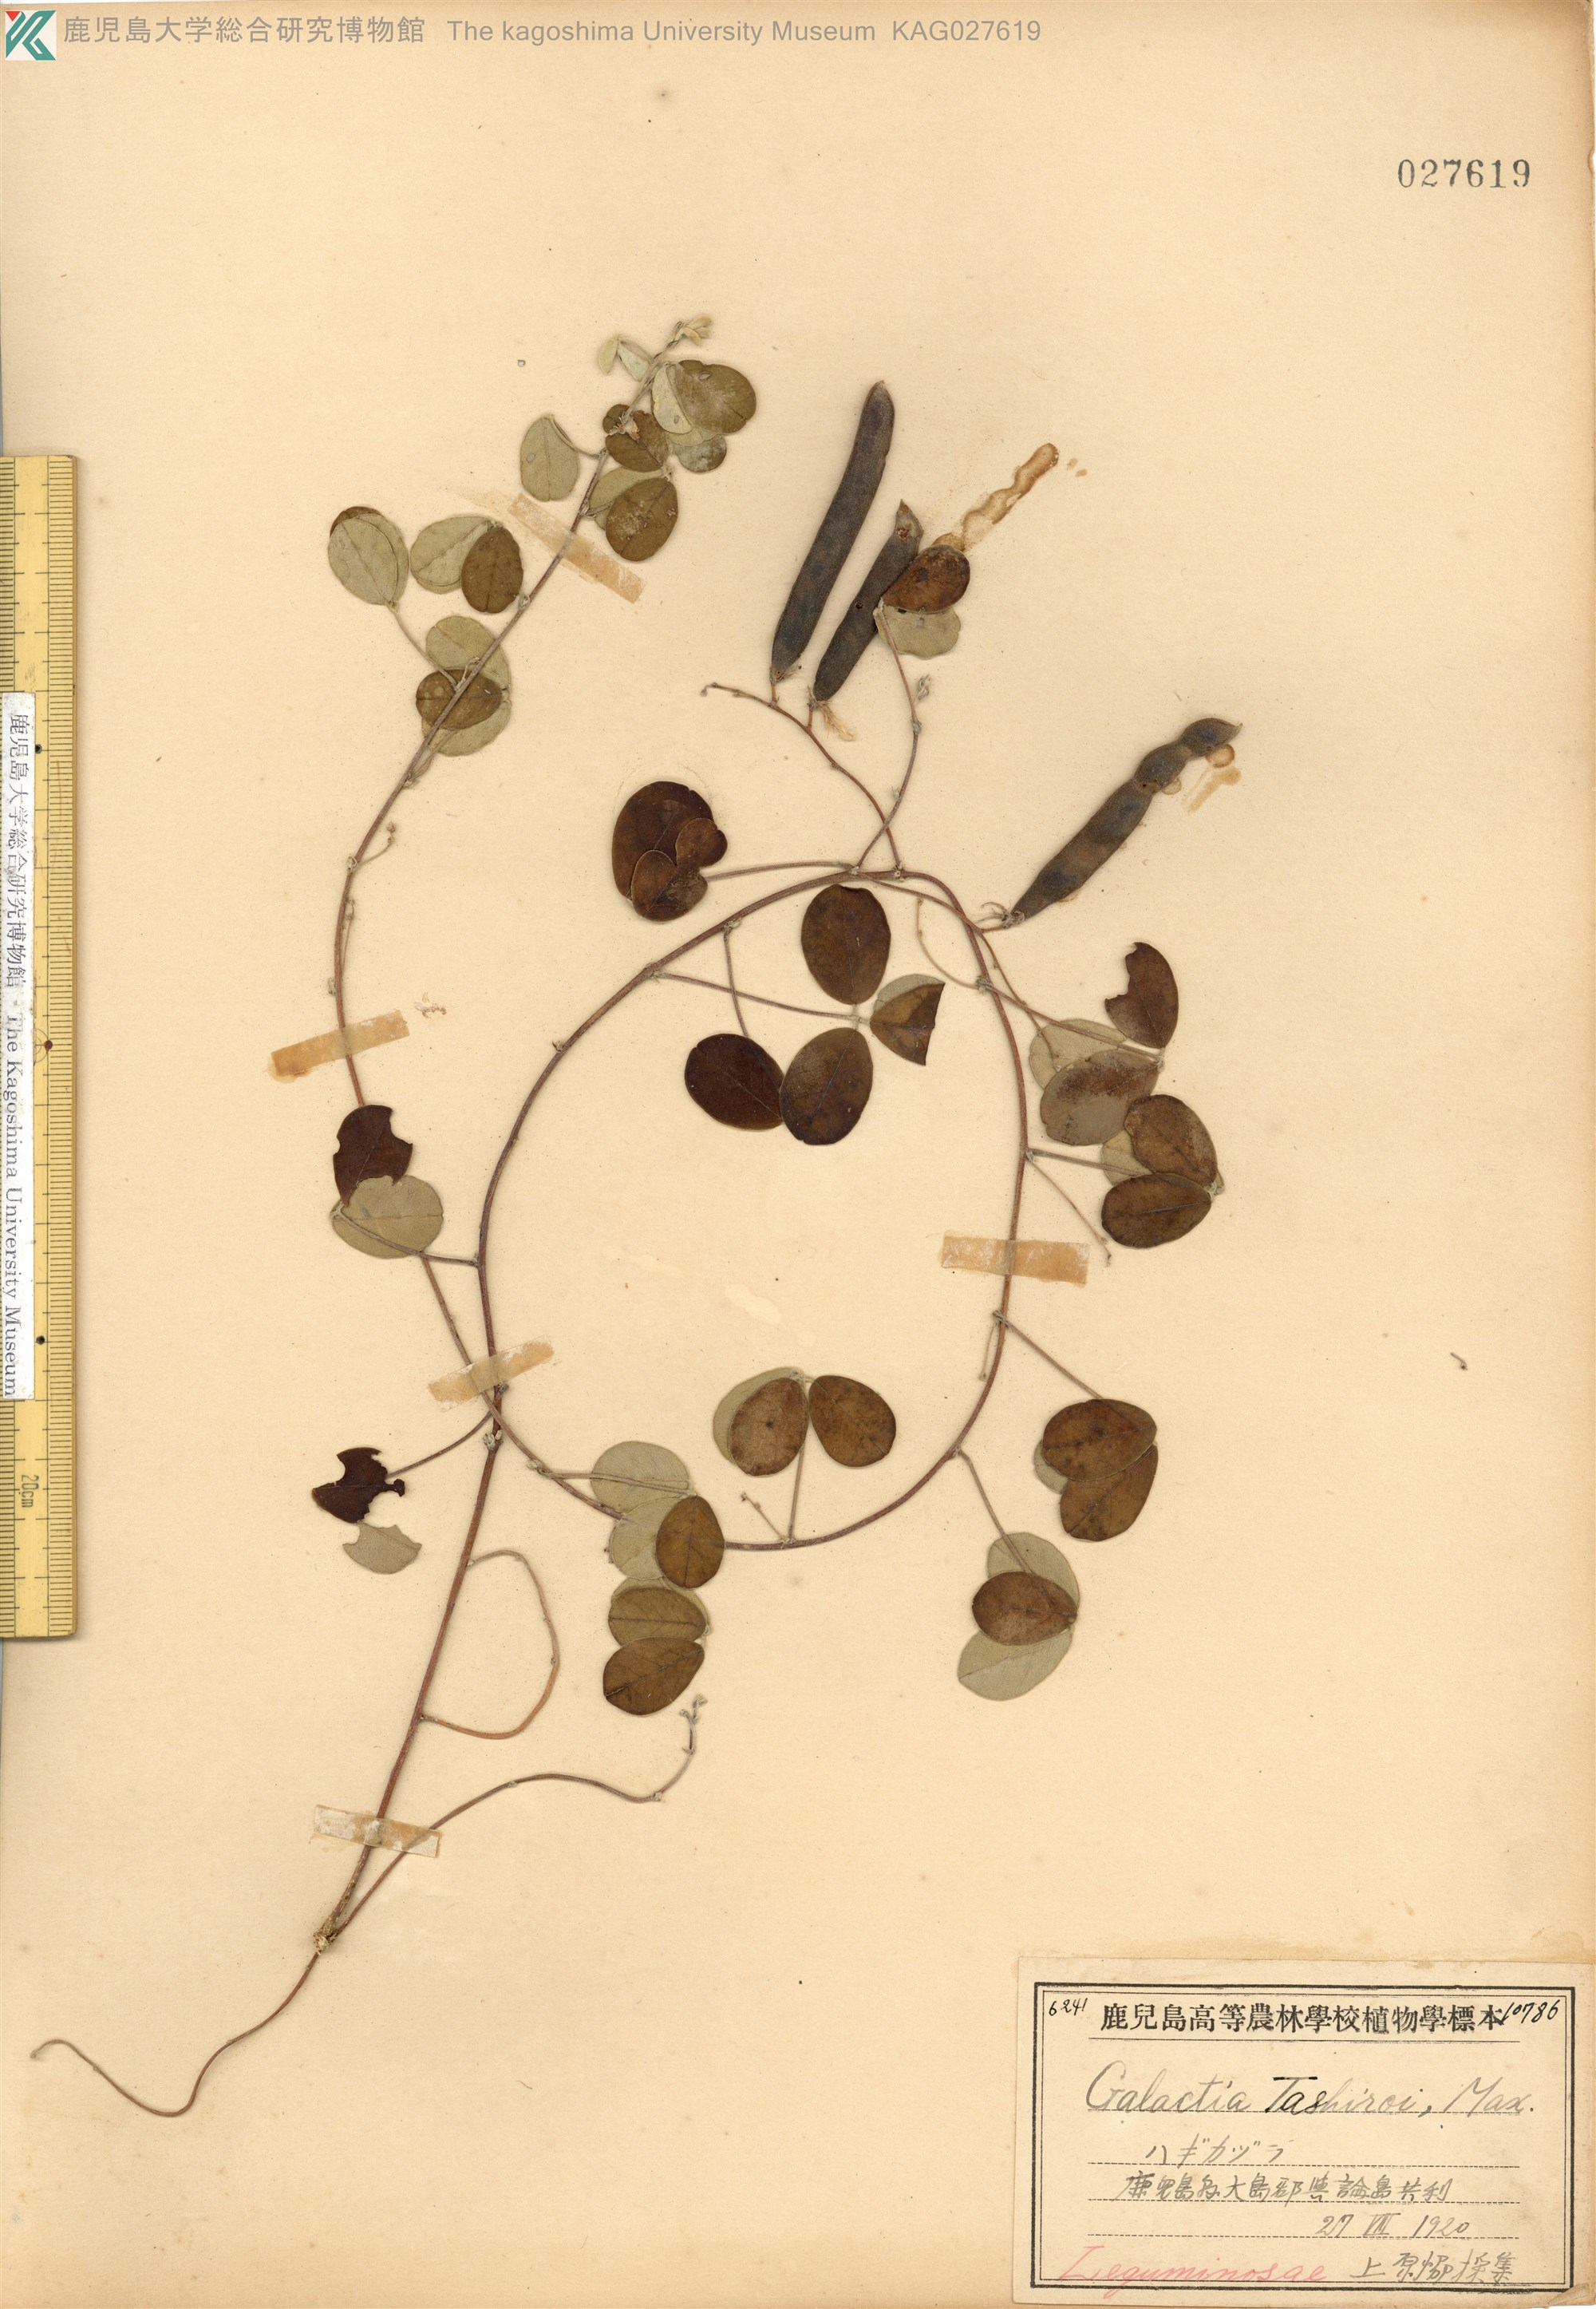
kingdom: Plantae
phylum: Tracheophyta
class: Magnoliopsida
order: Fabales
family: Fabaceae
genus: Galactia
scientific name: Galactia tashiroi
